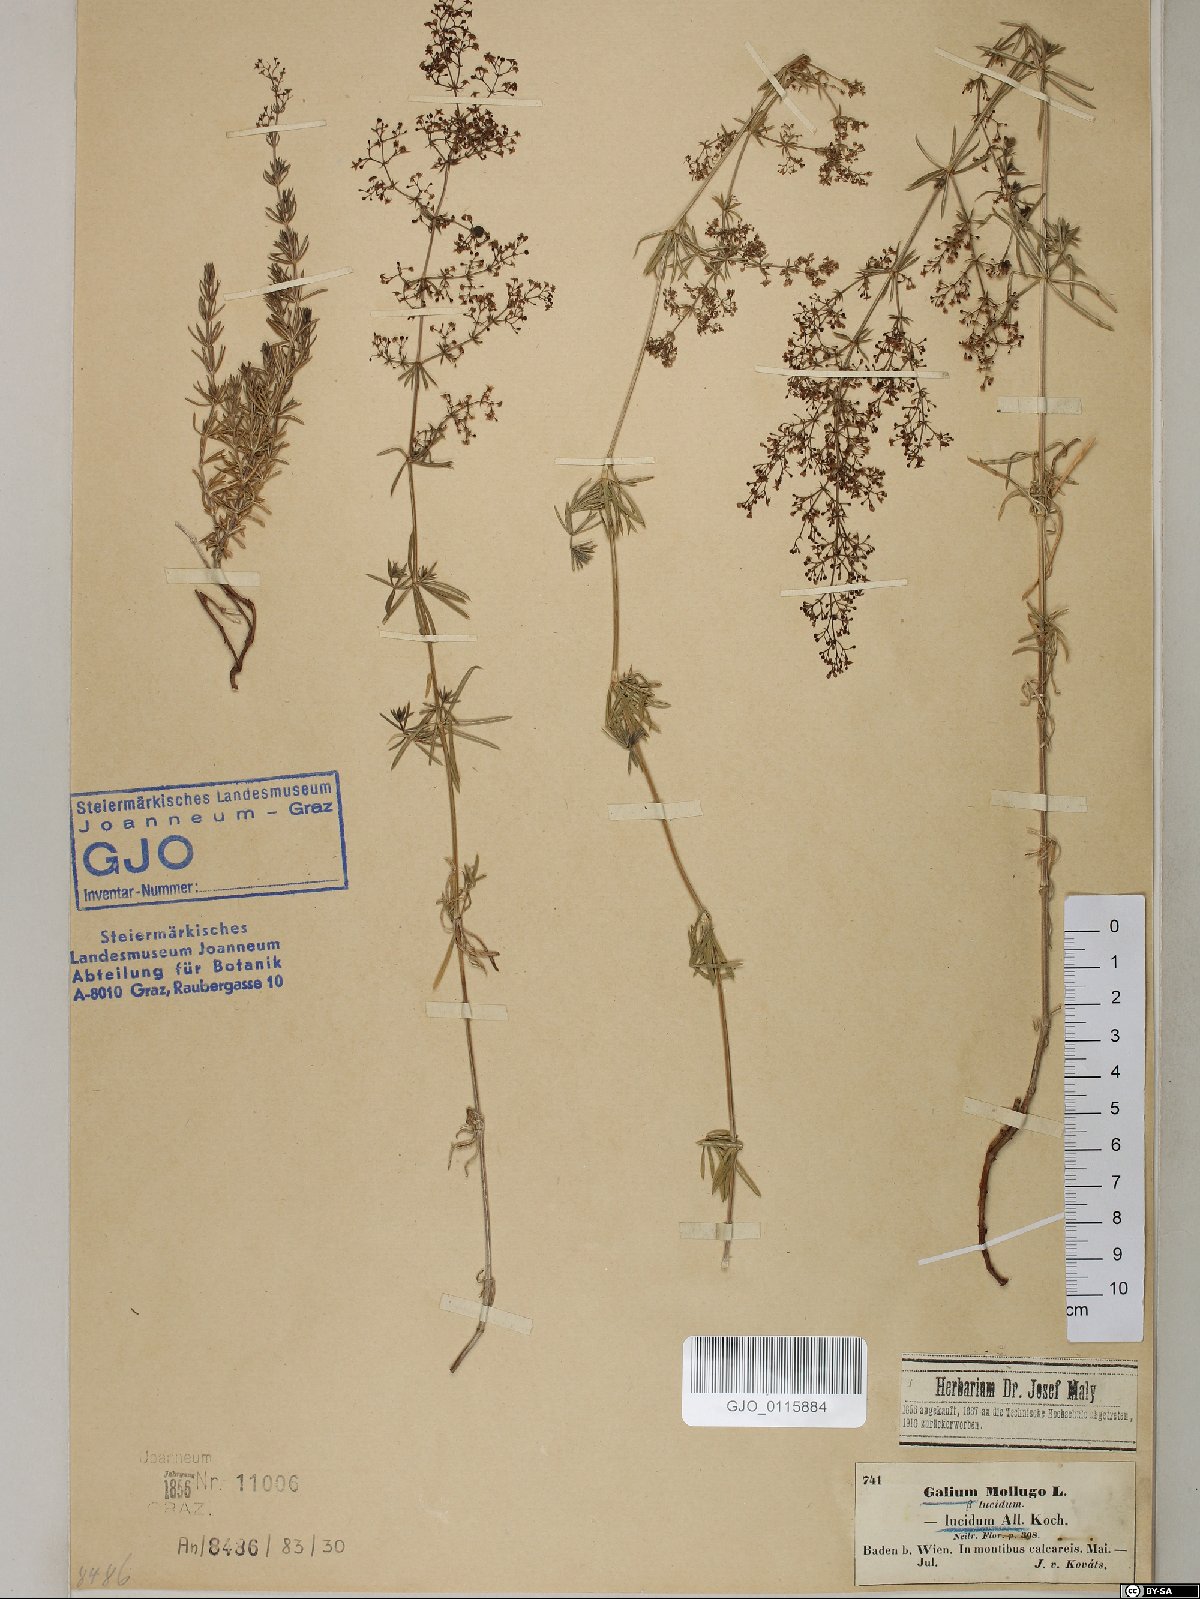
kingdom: Plantae
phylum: Tracheophyta
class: Magnoliopsida
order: Gentianales
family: Rubiaceae
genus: Galium
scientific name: Galium lucidum
